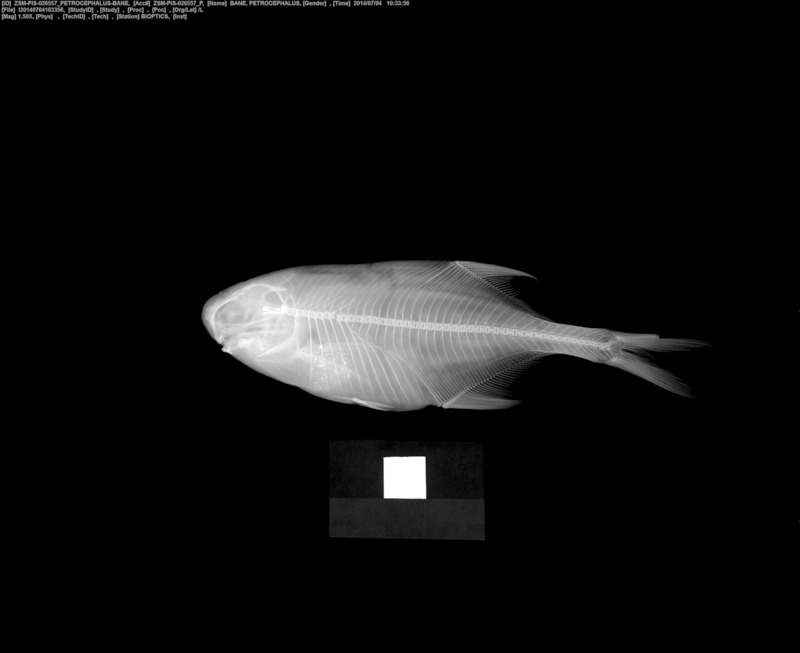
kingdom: Animalia
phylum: Chordata
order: Osteoglossiformes
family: Mormyridae
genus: Petrocephalus
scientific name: Petrocephalus bane
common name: Bane mormyrid
